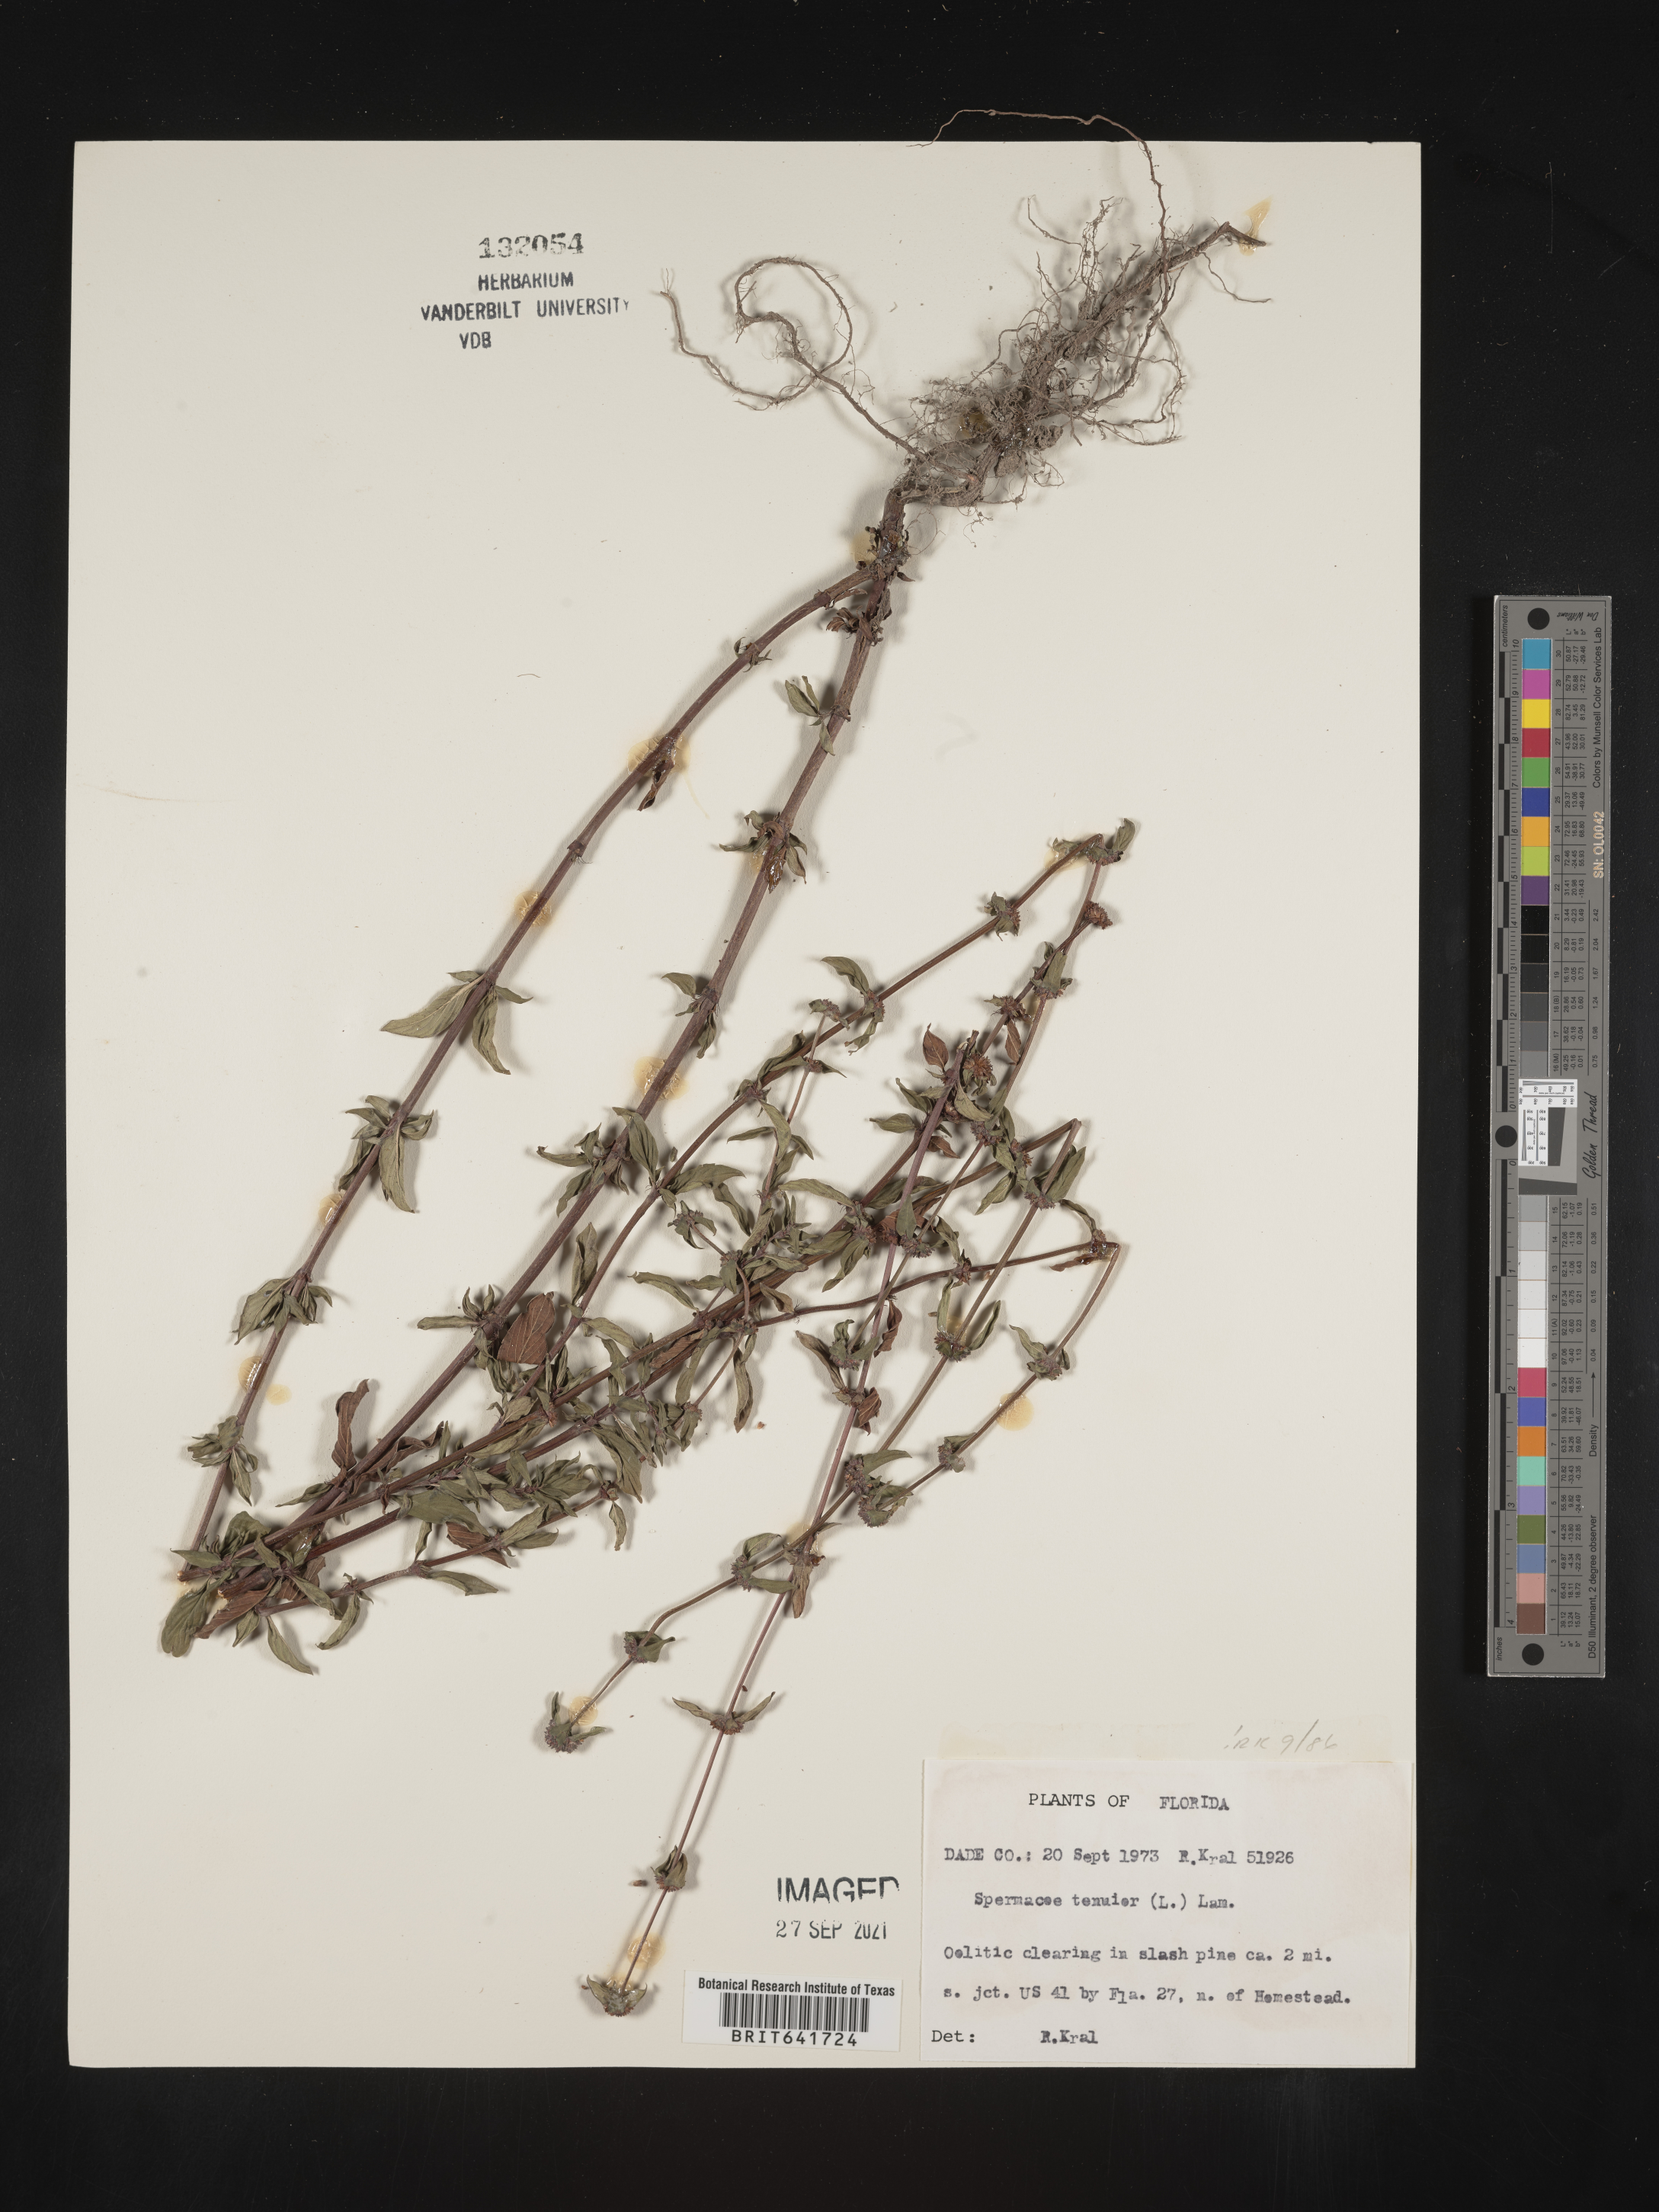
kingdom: Plantae
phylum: Tracheophyta
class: Magnoliopsida
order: Gentianales
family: Rubiaceae
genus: Spermacoce
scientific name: Spermacoce tenuior
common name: River false buttonweed
